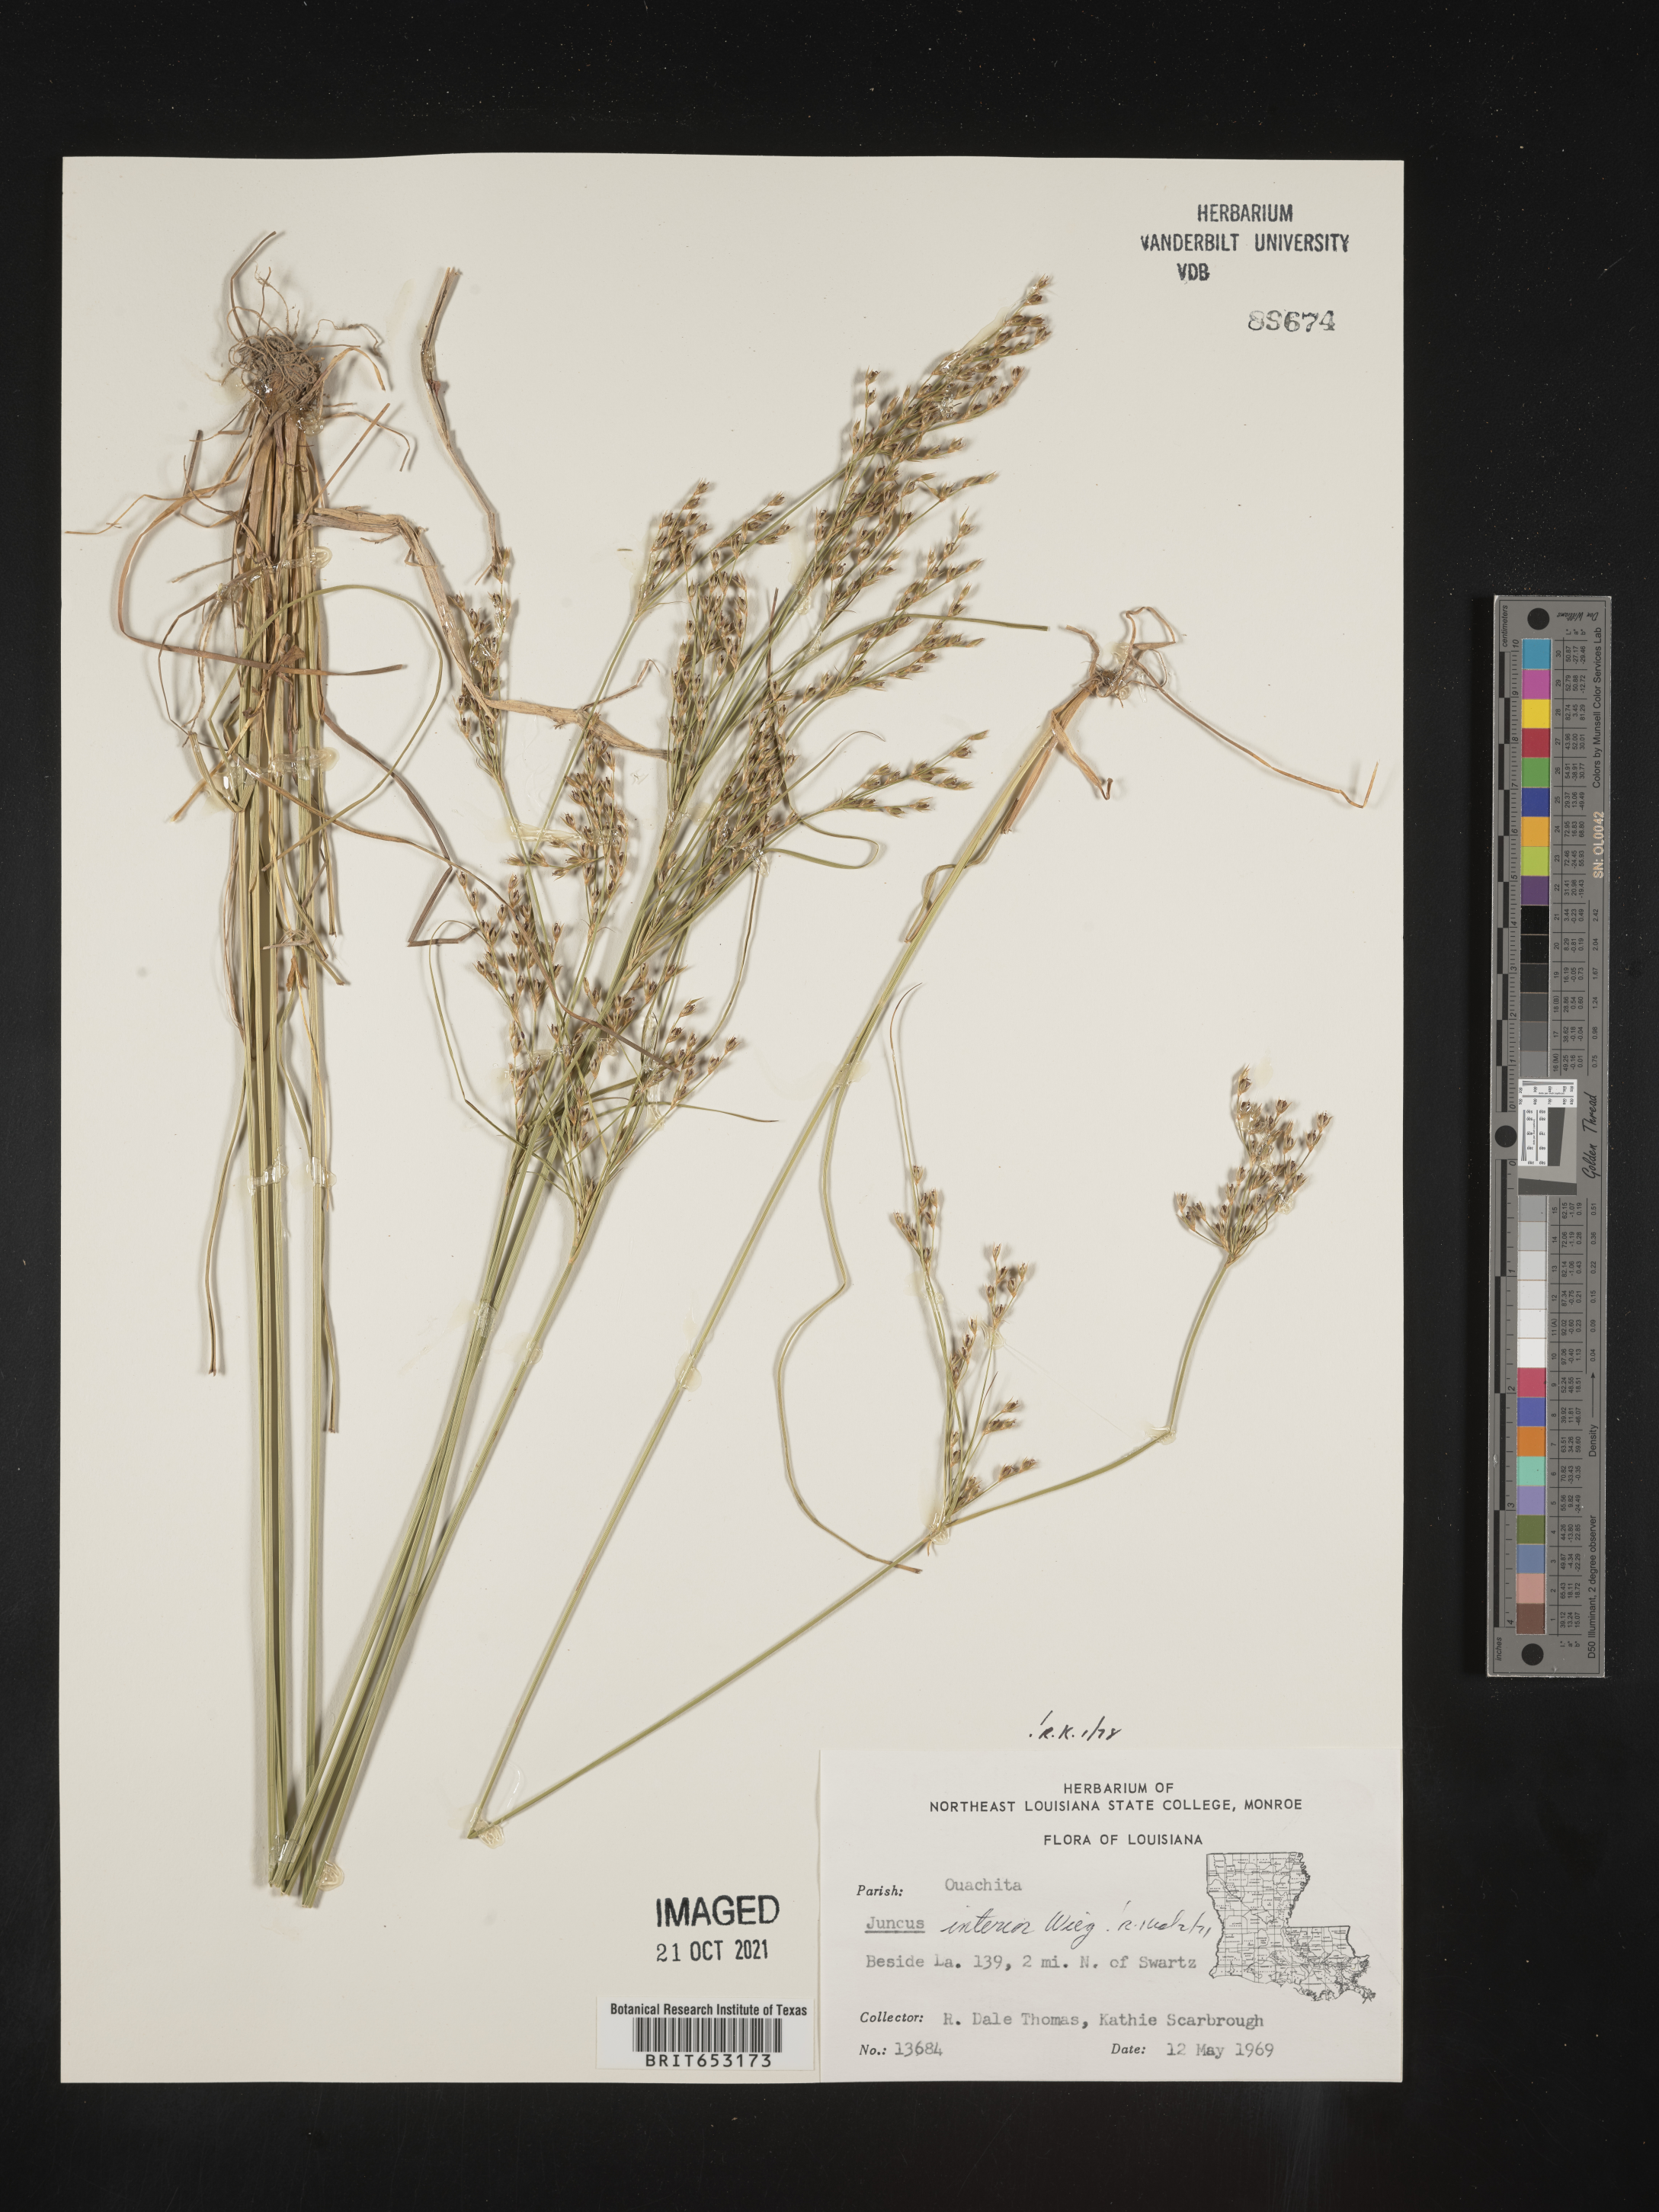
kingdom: Plantae
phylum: Tracheophyta
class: Liliopsida
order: Poales
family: Juncaceae
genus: Juncus
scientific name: Juncus interior
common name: Interior rush
